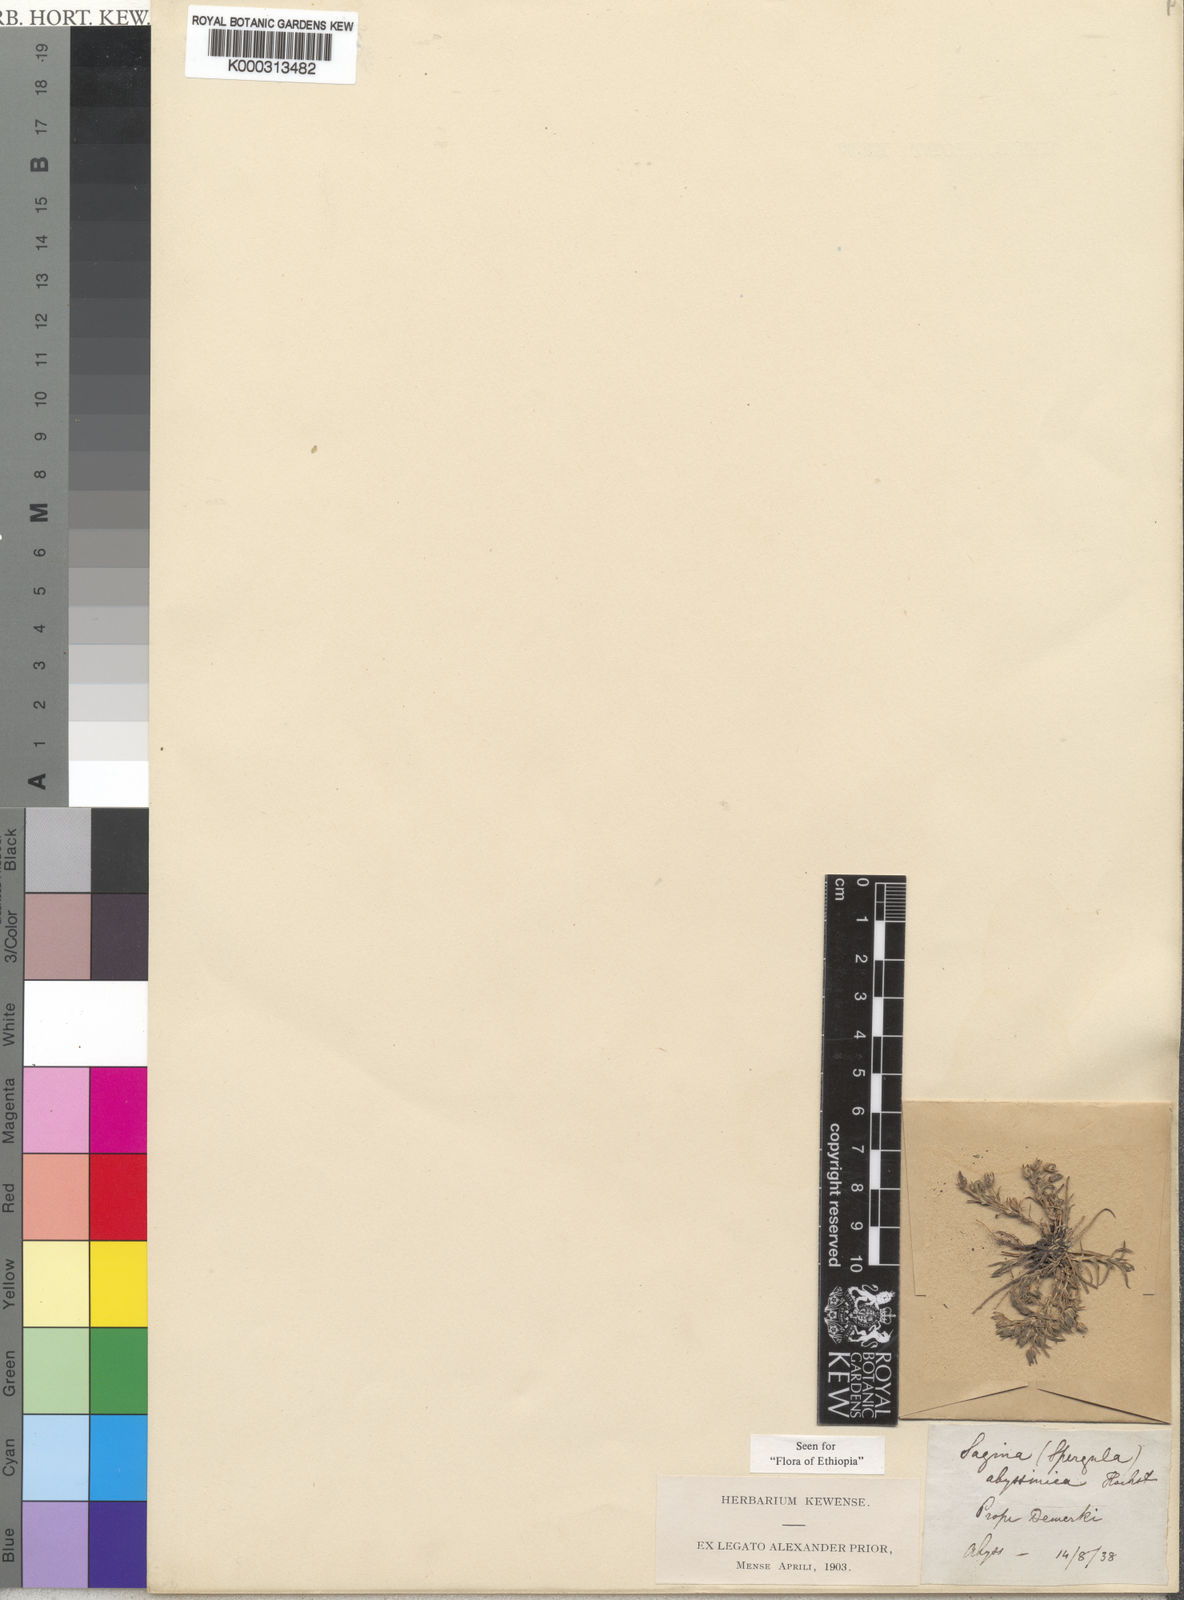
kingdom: Plantae
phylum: Tracheophyta
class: Magnoliopsida
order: Caryophyllales
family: Caryophyllaceae
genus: Sagina
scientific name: Sagina
